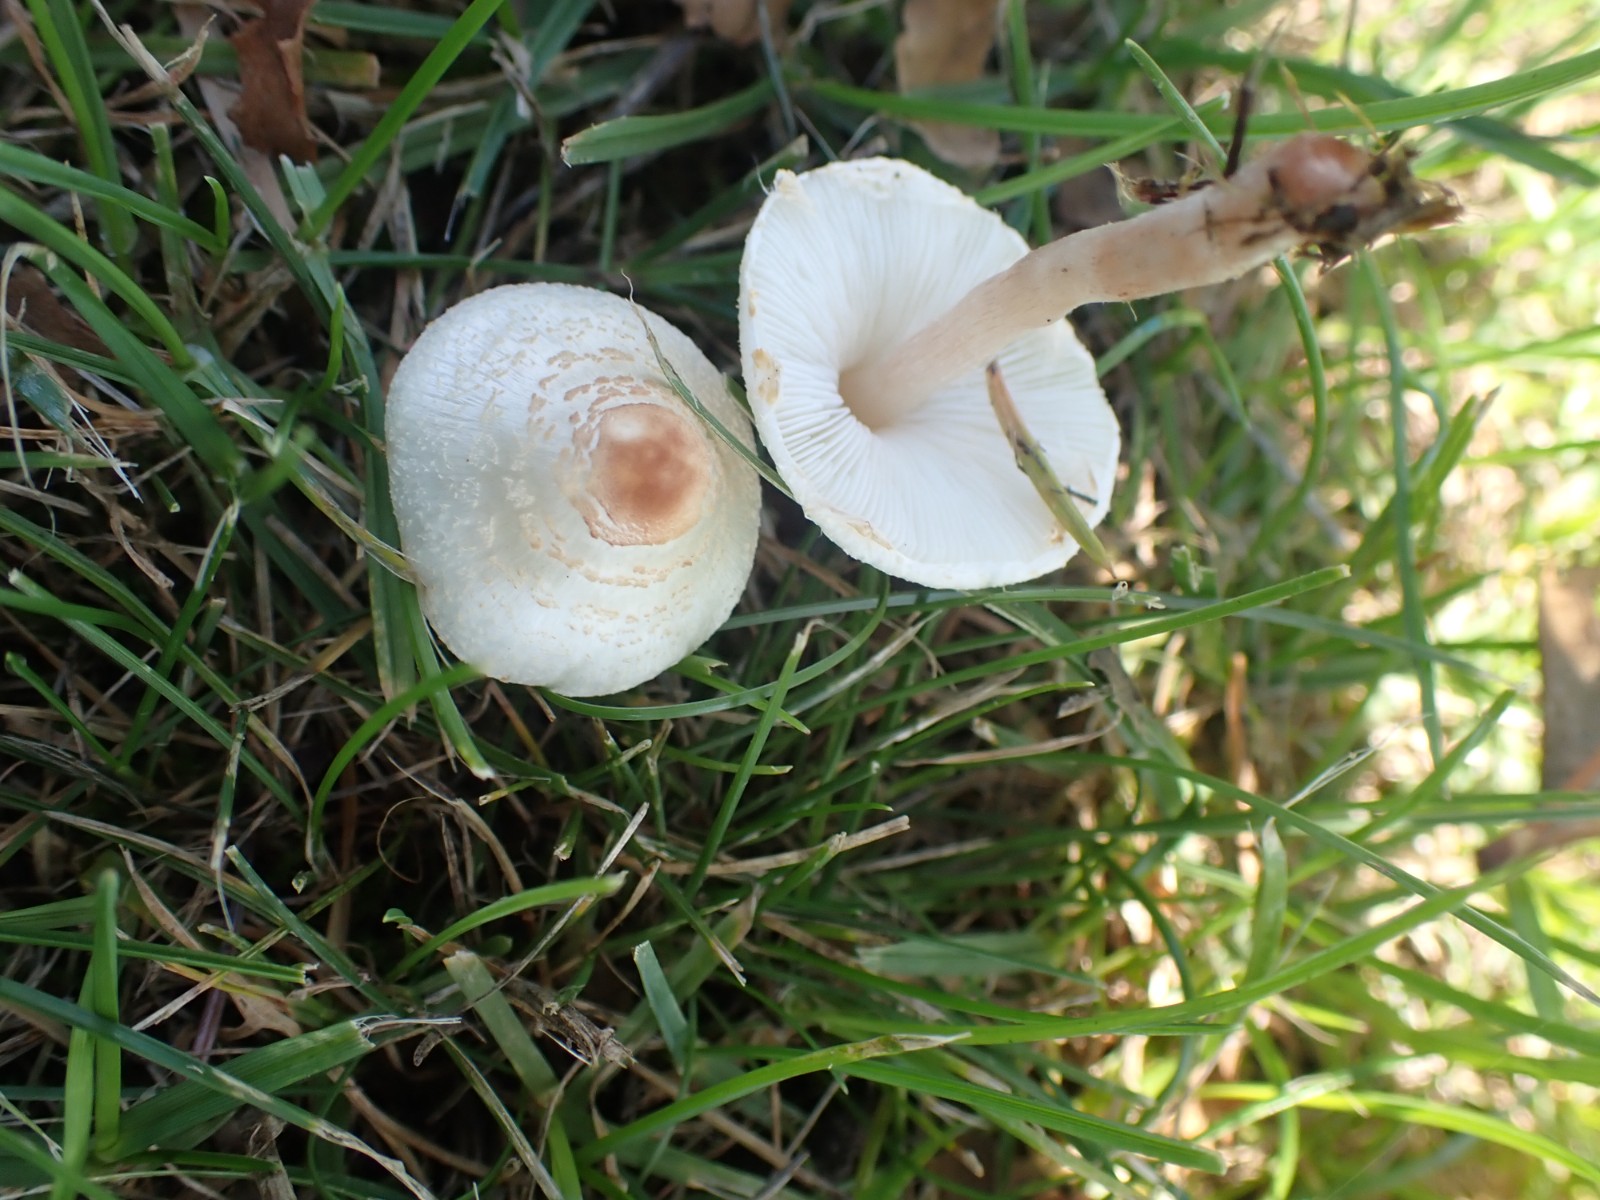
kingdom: Fungi
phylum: Basidiomycota
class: Agaricomycetes
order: Agaricales
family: Agaricaceae
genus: Lepiota
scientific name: Lepiota cristata
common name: stinkende parasolhat
